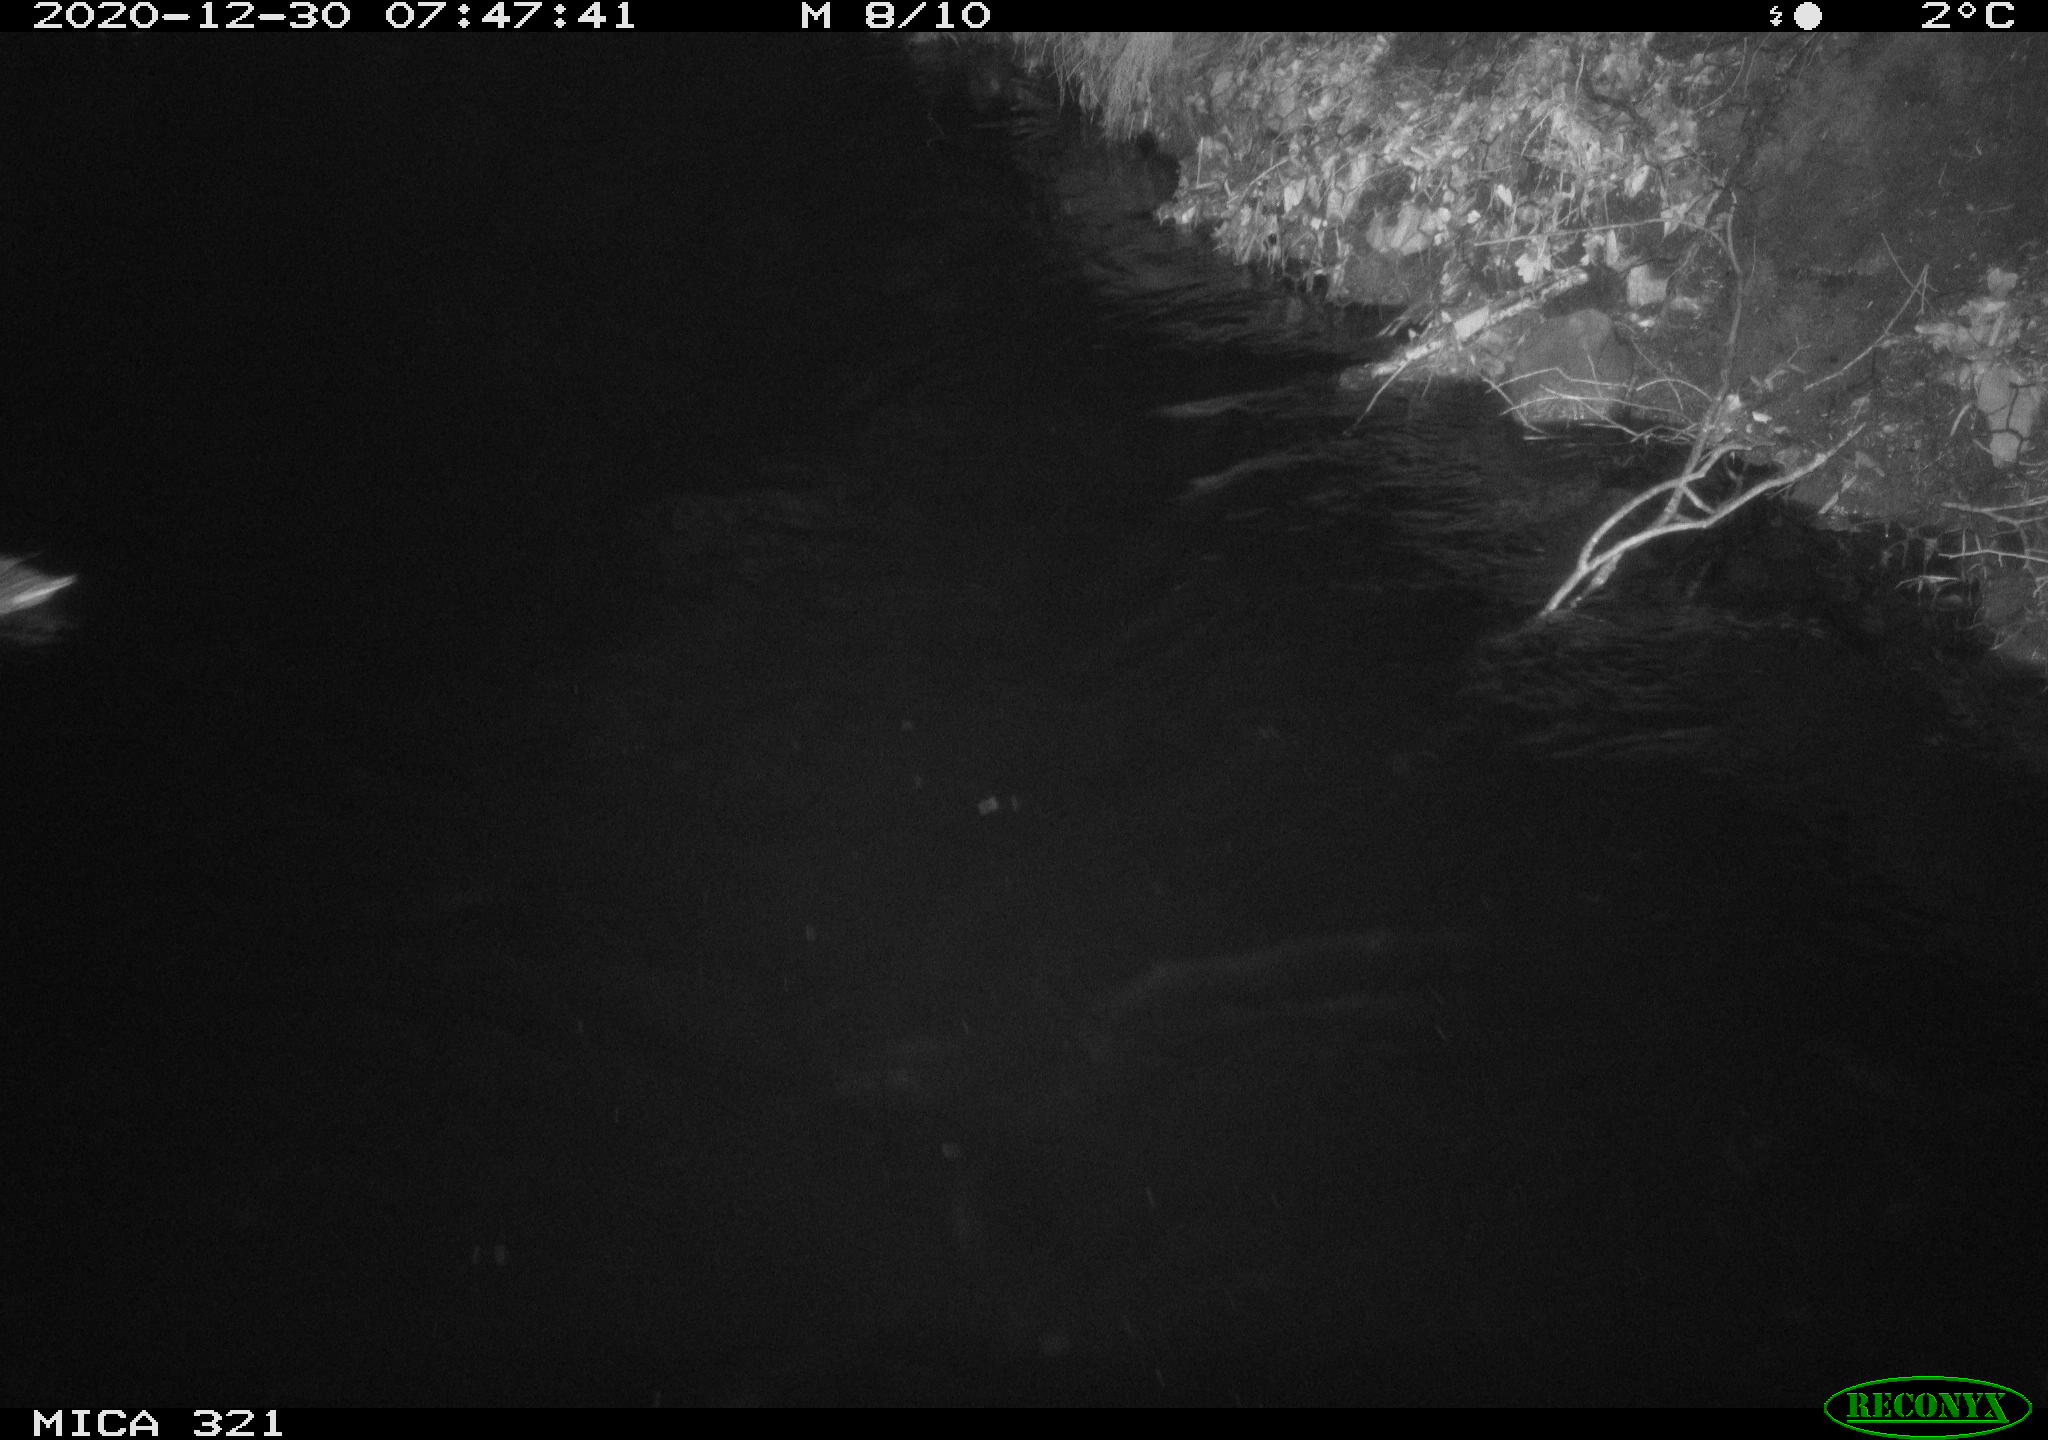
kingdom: Animalia
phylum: Chordata
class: Aves
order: Anseriformes
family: Anatidae
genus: Anas
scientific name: Anas platyrhynchos
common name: Mallard
